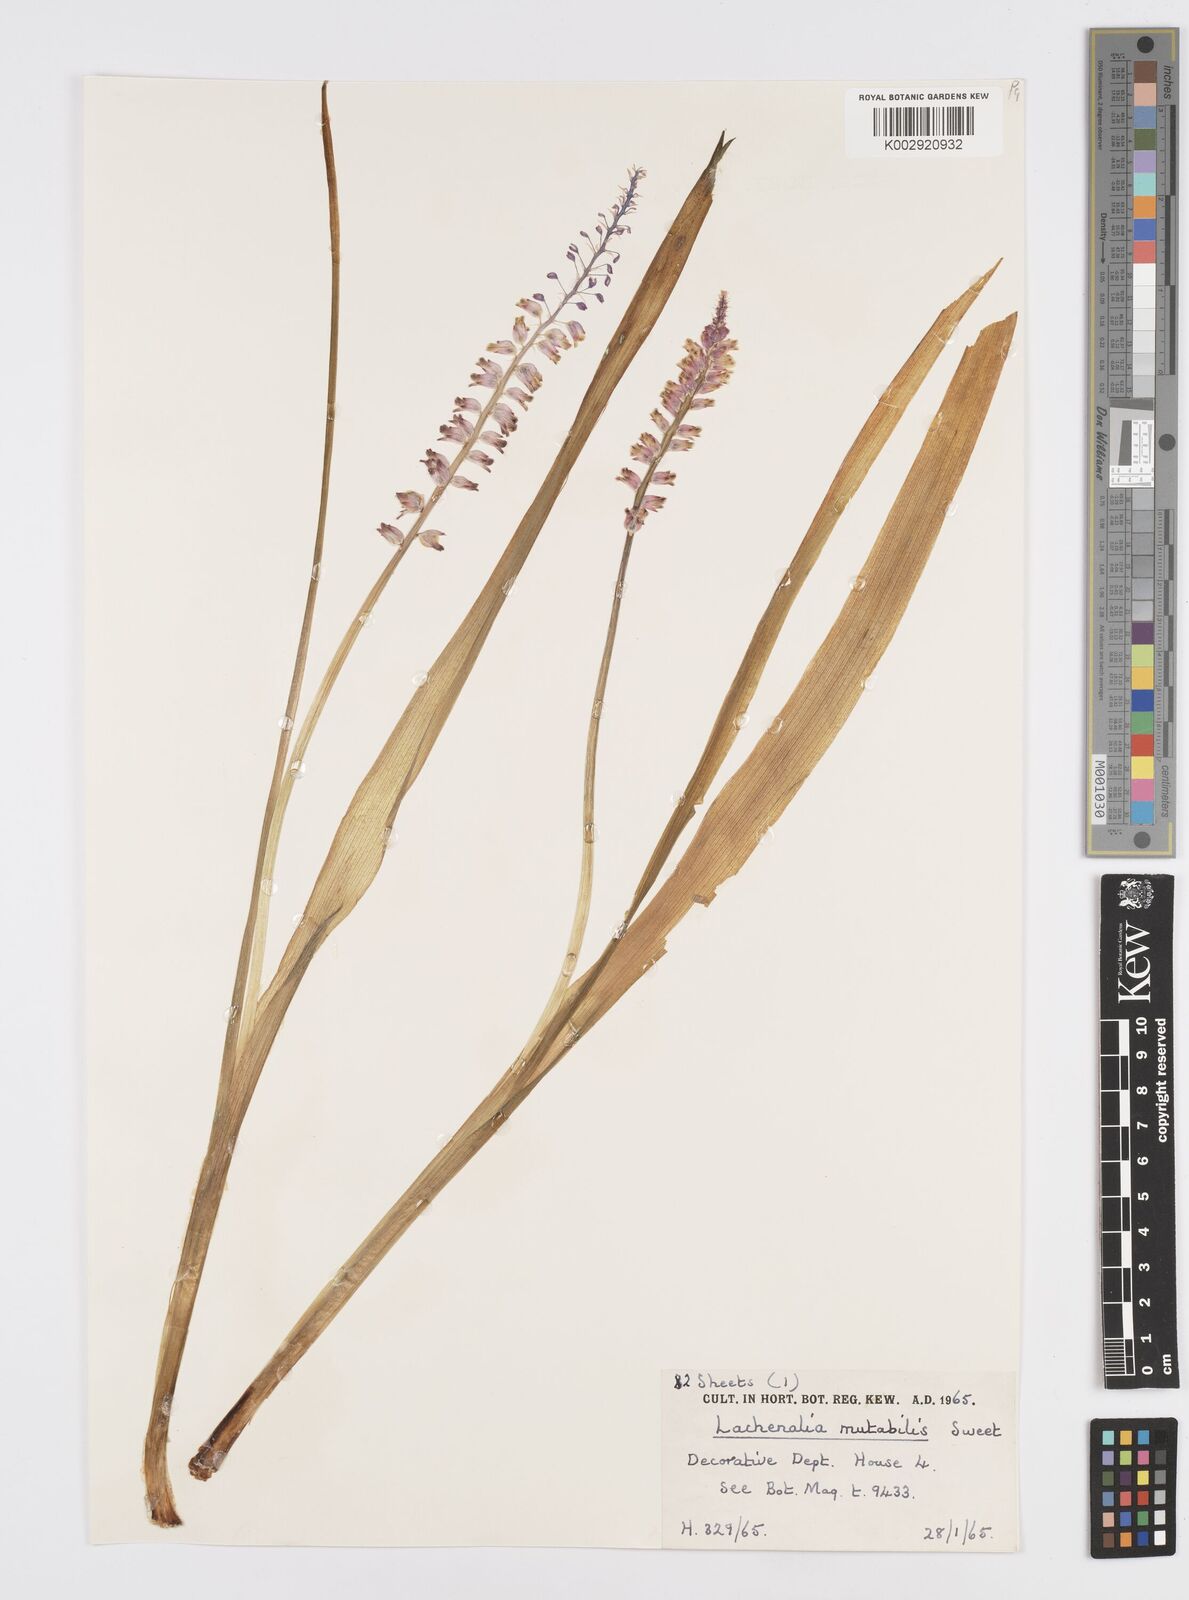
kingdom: Plantae
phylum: Tracheophyta
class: Liliopsida
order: Asparagales
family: Asparagaceae
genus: Lachenalia
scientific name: Lachenalia mutabilis
